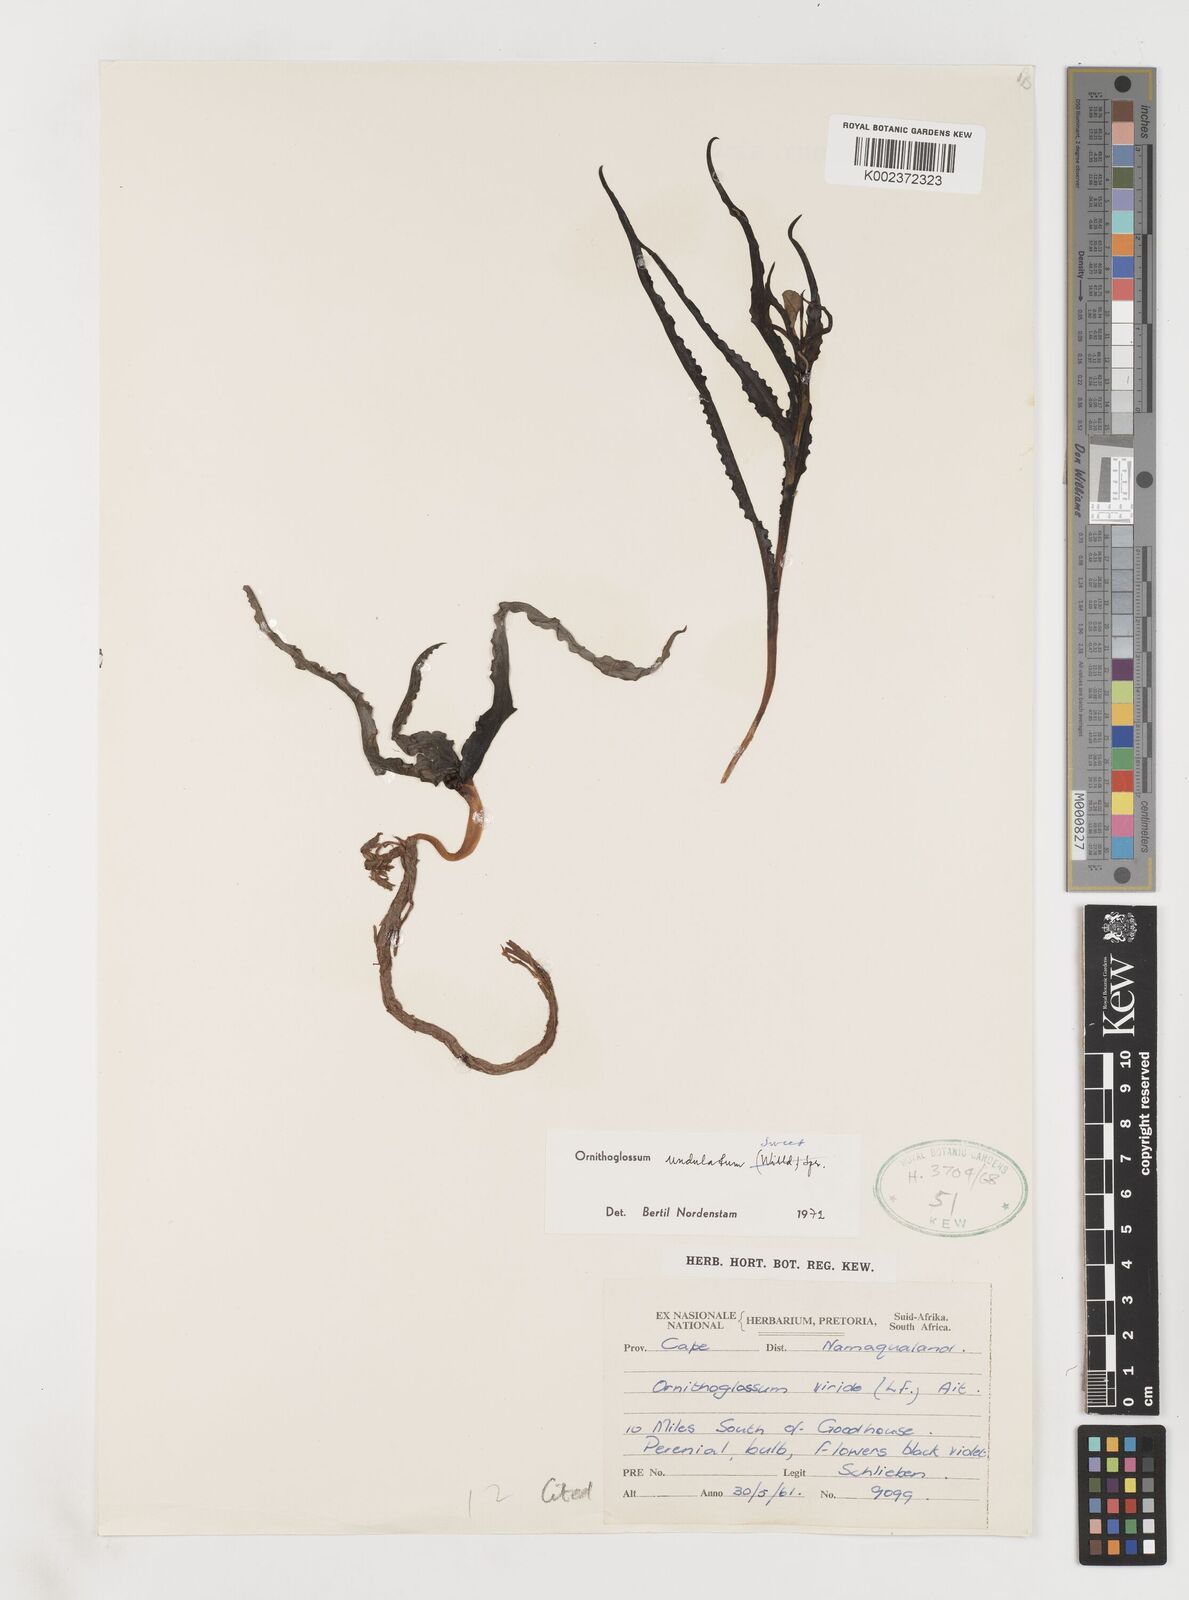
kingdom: Plantae
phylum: Tracheophyta
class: Liliopsida
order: Liliales
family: Colchicaceae
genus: Ornithoglossum
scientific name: Ornithoglossum undulatum
